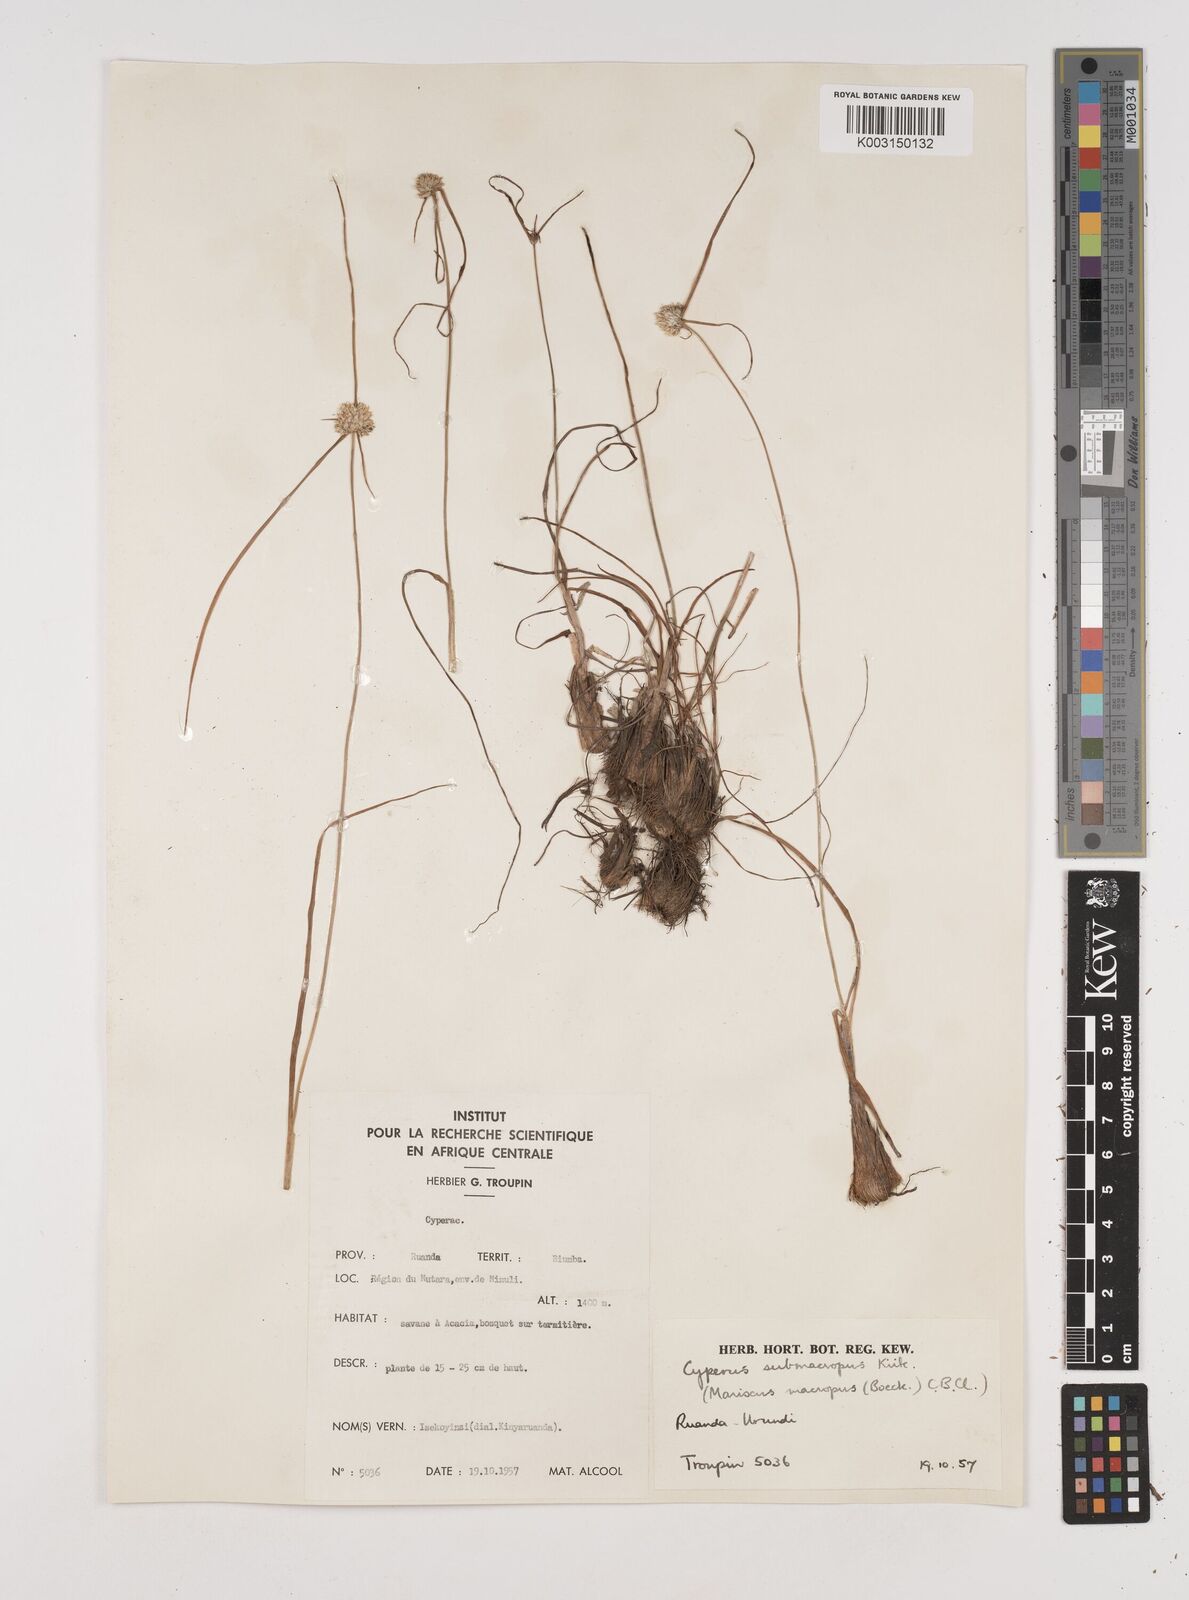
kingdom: Plantae
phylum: Tracheophyta
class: Liliopsida
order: Poales
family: Cyperaceae
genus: Cyperus
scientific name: Cyperus mollipes
